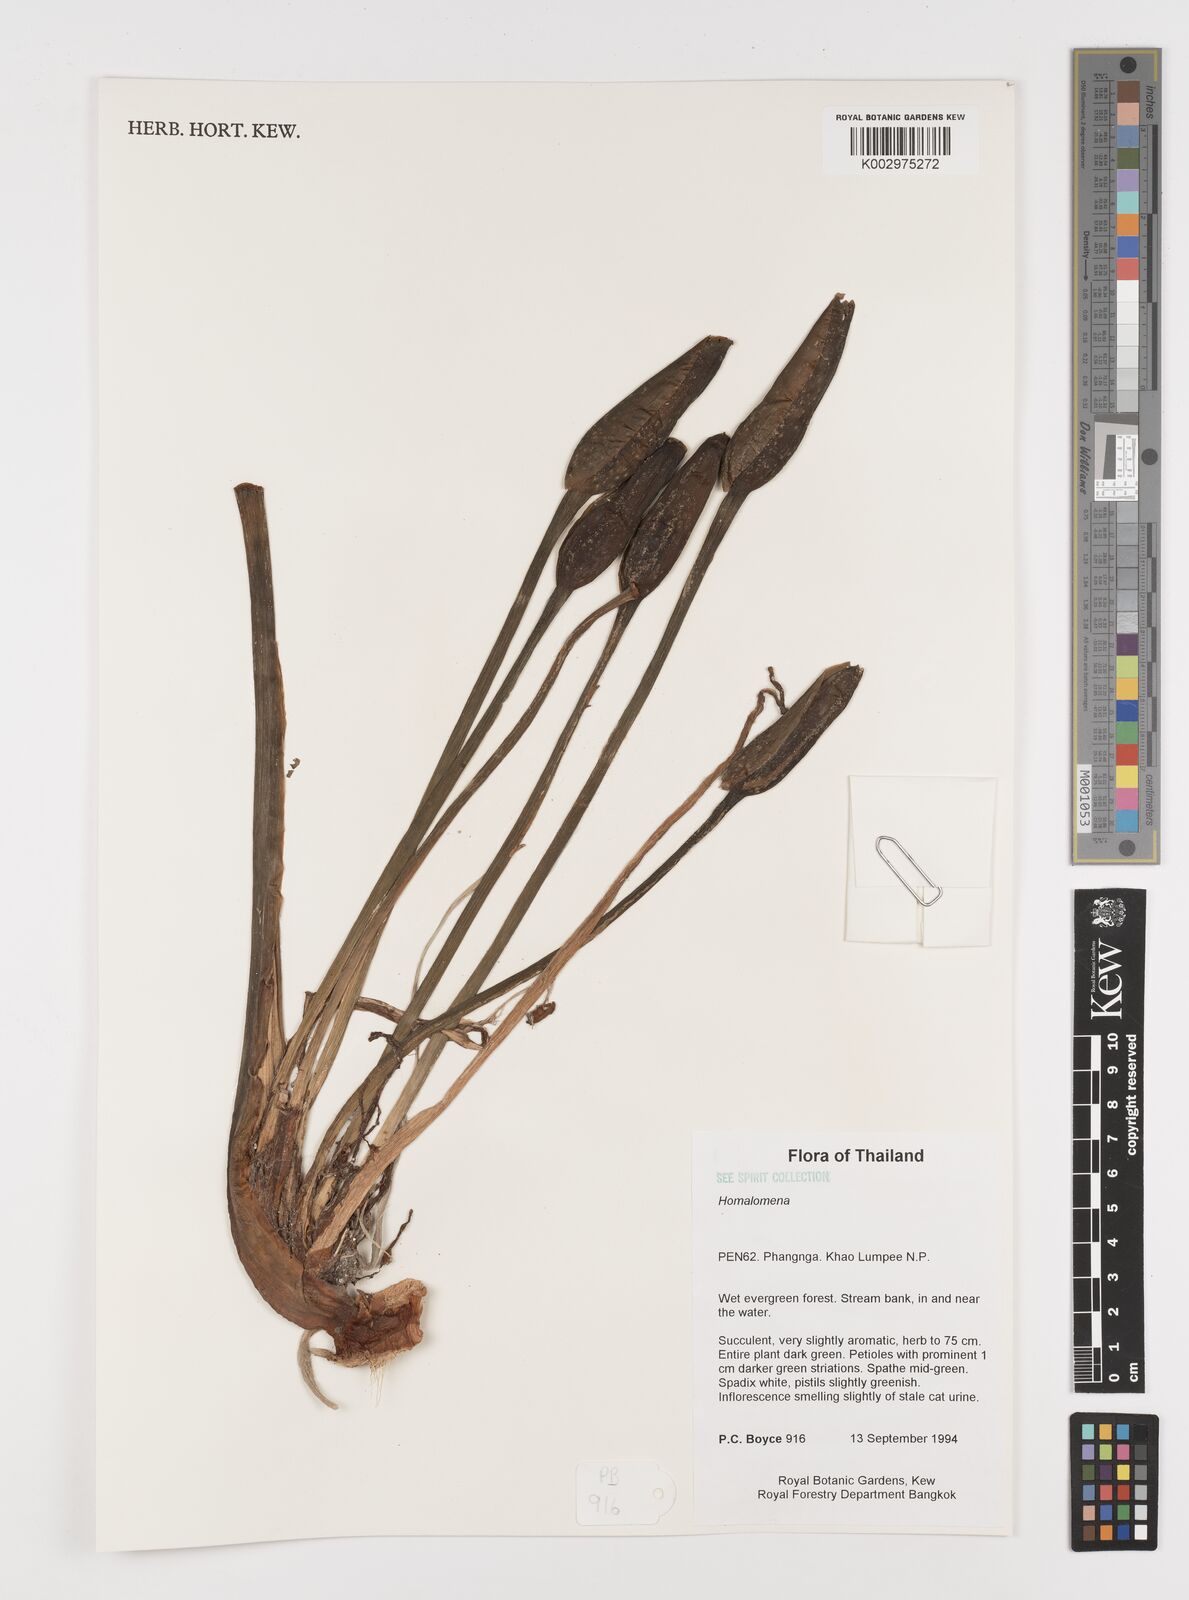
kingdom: Plantae
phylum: Tracheophyta
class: Liliopsida
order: Alismatales
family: Araceae
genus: Homalomena
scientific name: Homalomena
